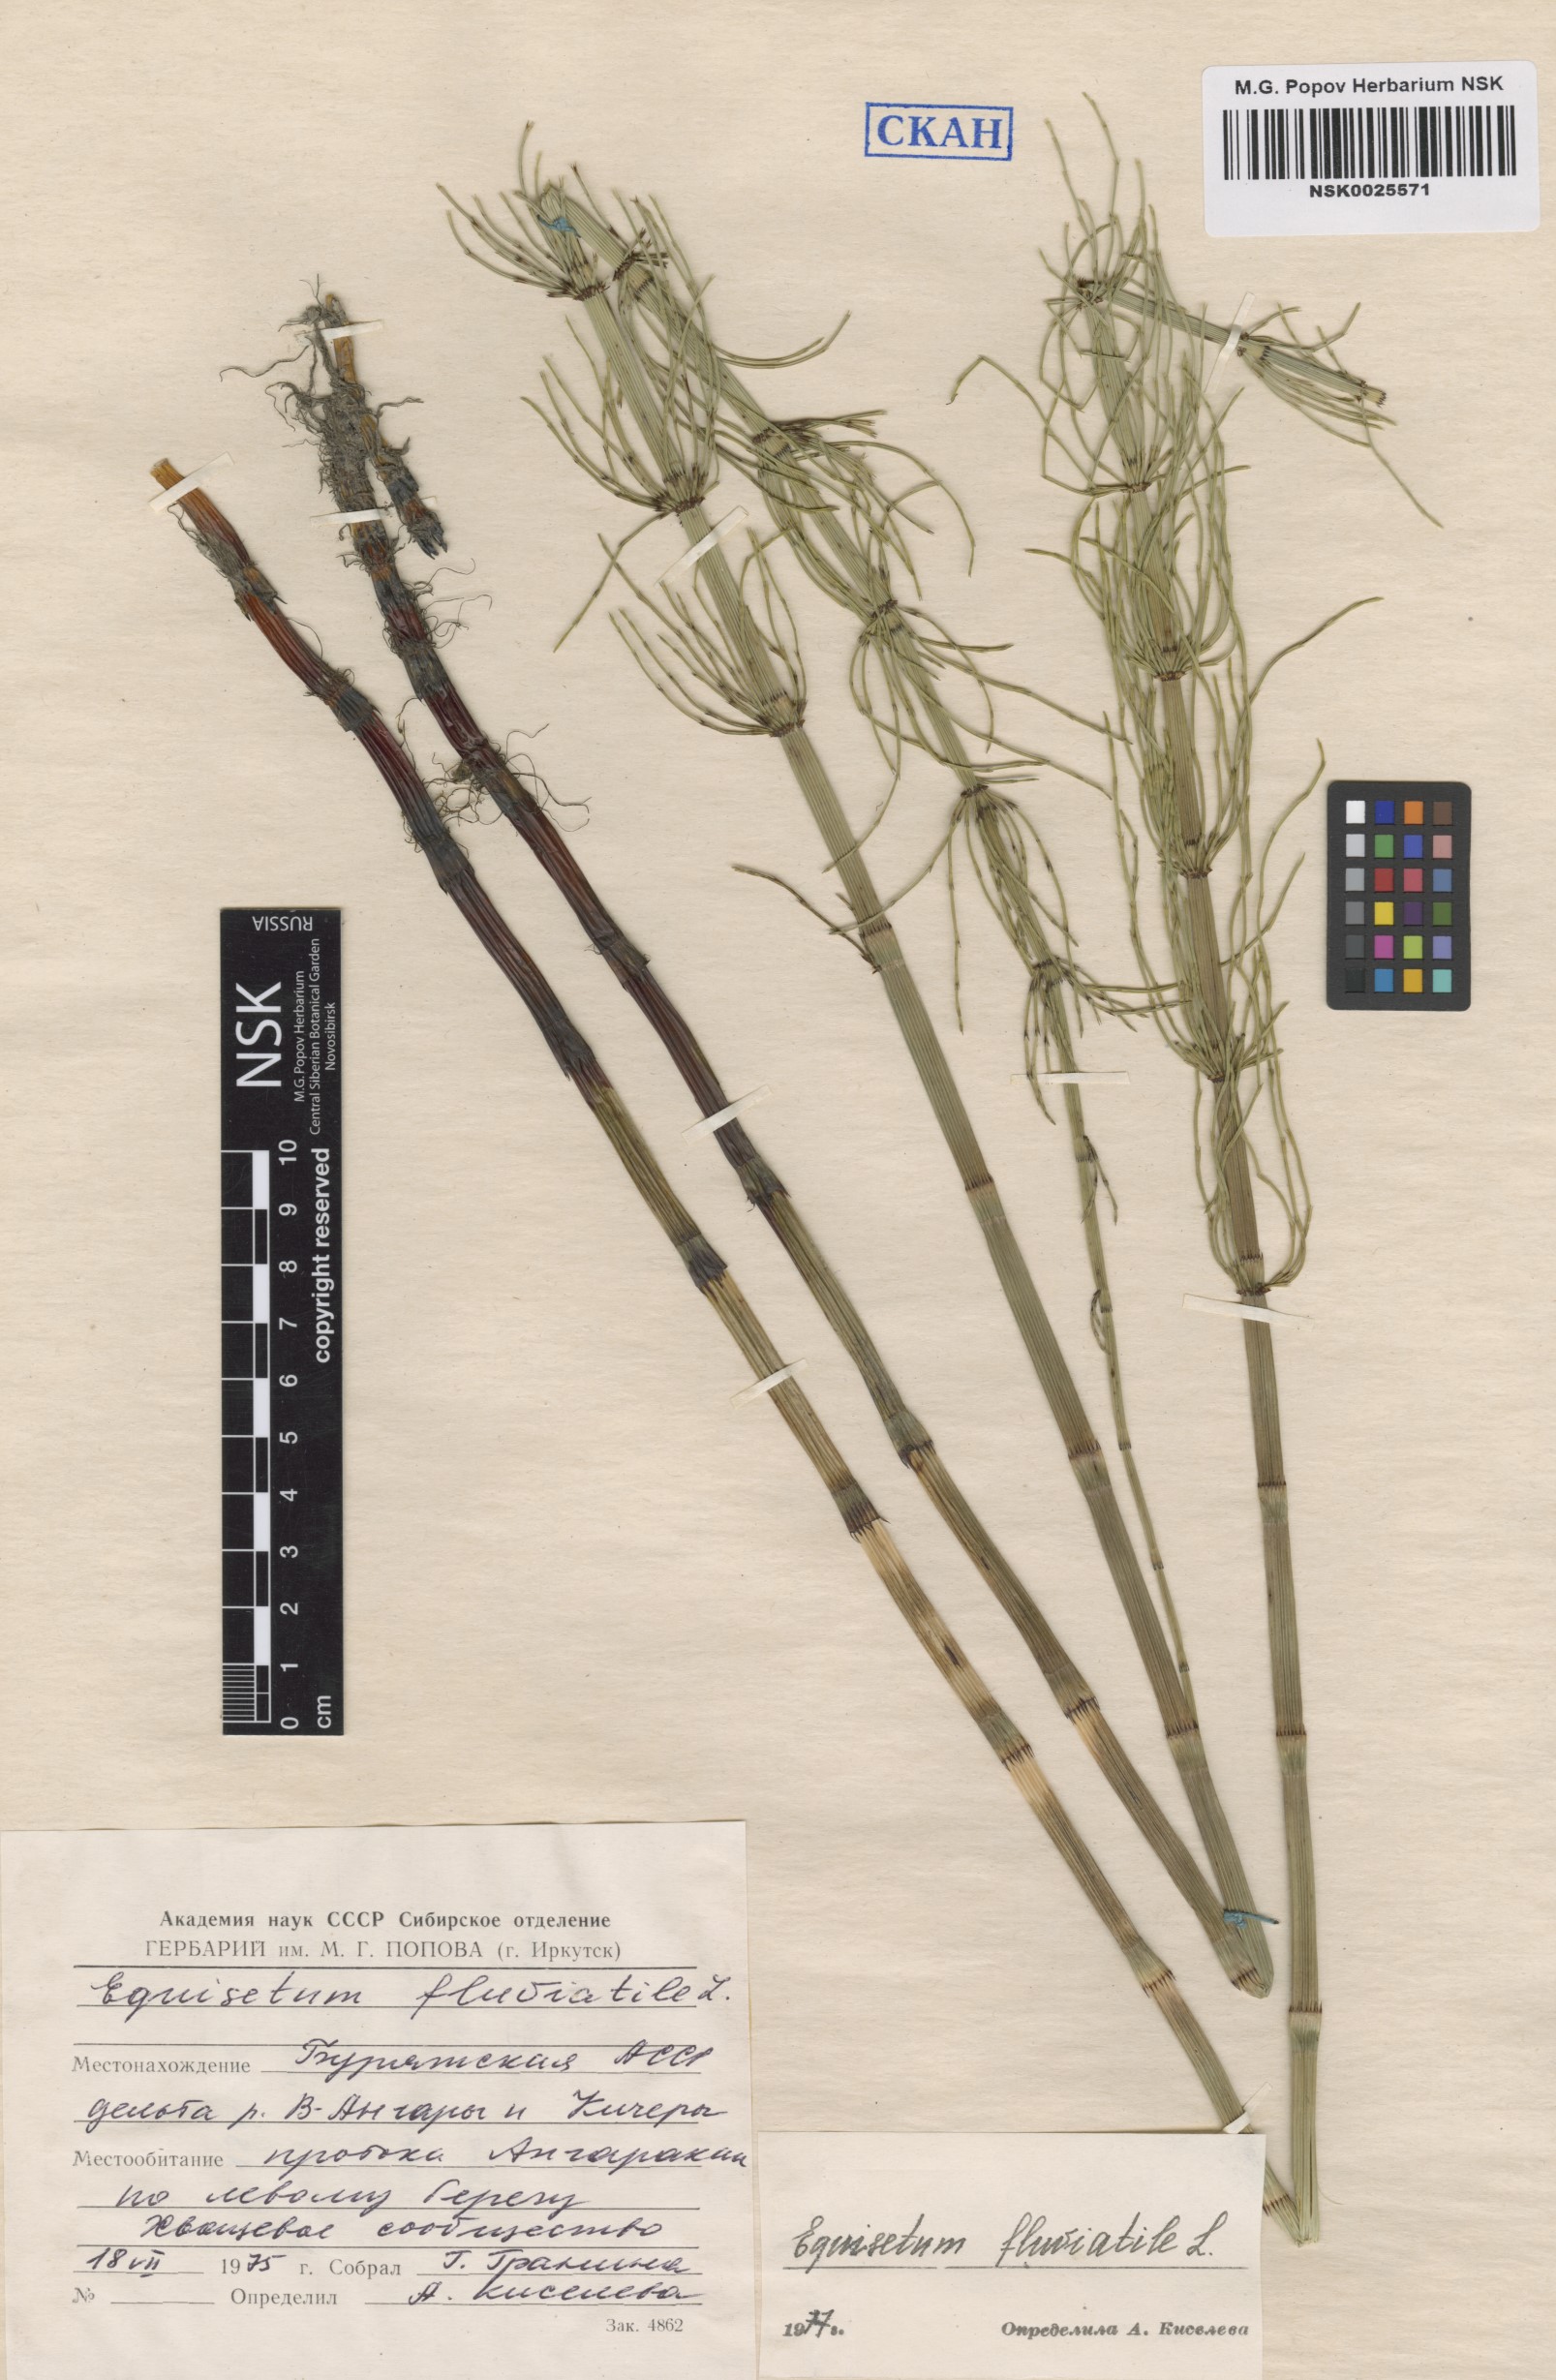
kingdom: Plantae
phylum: Tracheophyta
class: Polypodiopsida
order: Equisetales
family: Equisetaceae
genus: Equisetum
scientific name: Equisetum fluviatile
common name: Water horsetail
